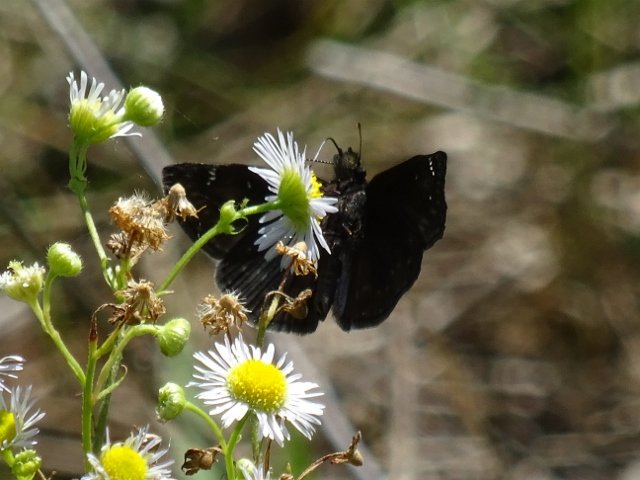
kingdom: Animalia
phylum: Arthropoda
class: Insecta
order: Lepidoptera
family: Hesperiidae
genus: Gesta
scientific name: Gesta
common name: Wild Indigo Duskywing
